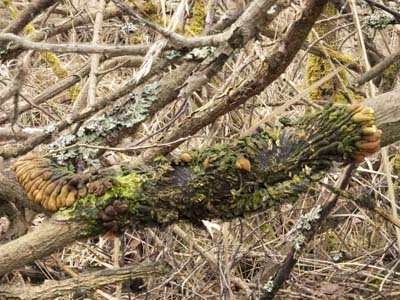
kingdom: Fungi
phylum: Ascomycota
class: Sordariomycetes
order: Hypocreales
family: Hypocreaceae
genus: Hypocreopsis
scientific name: Hypocreopsis lichenoides
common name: pilfinger
